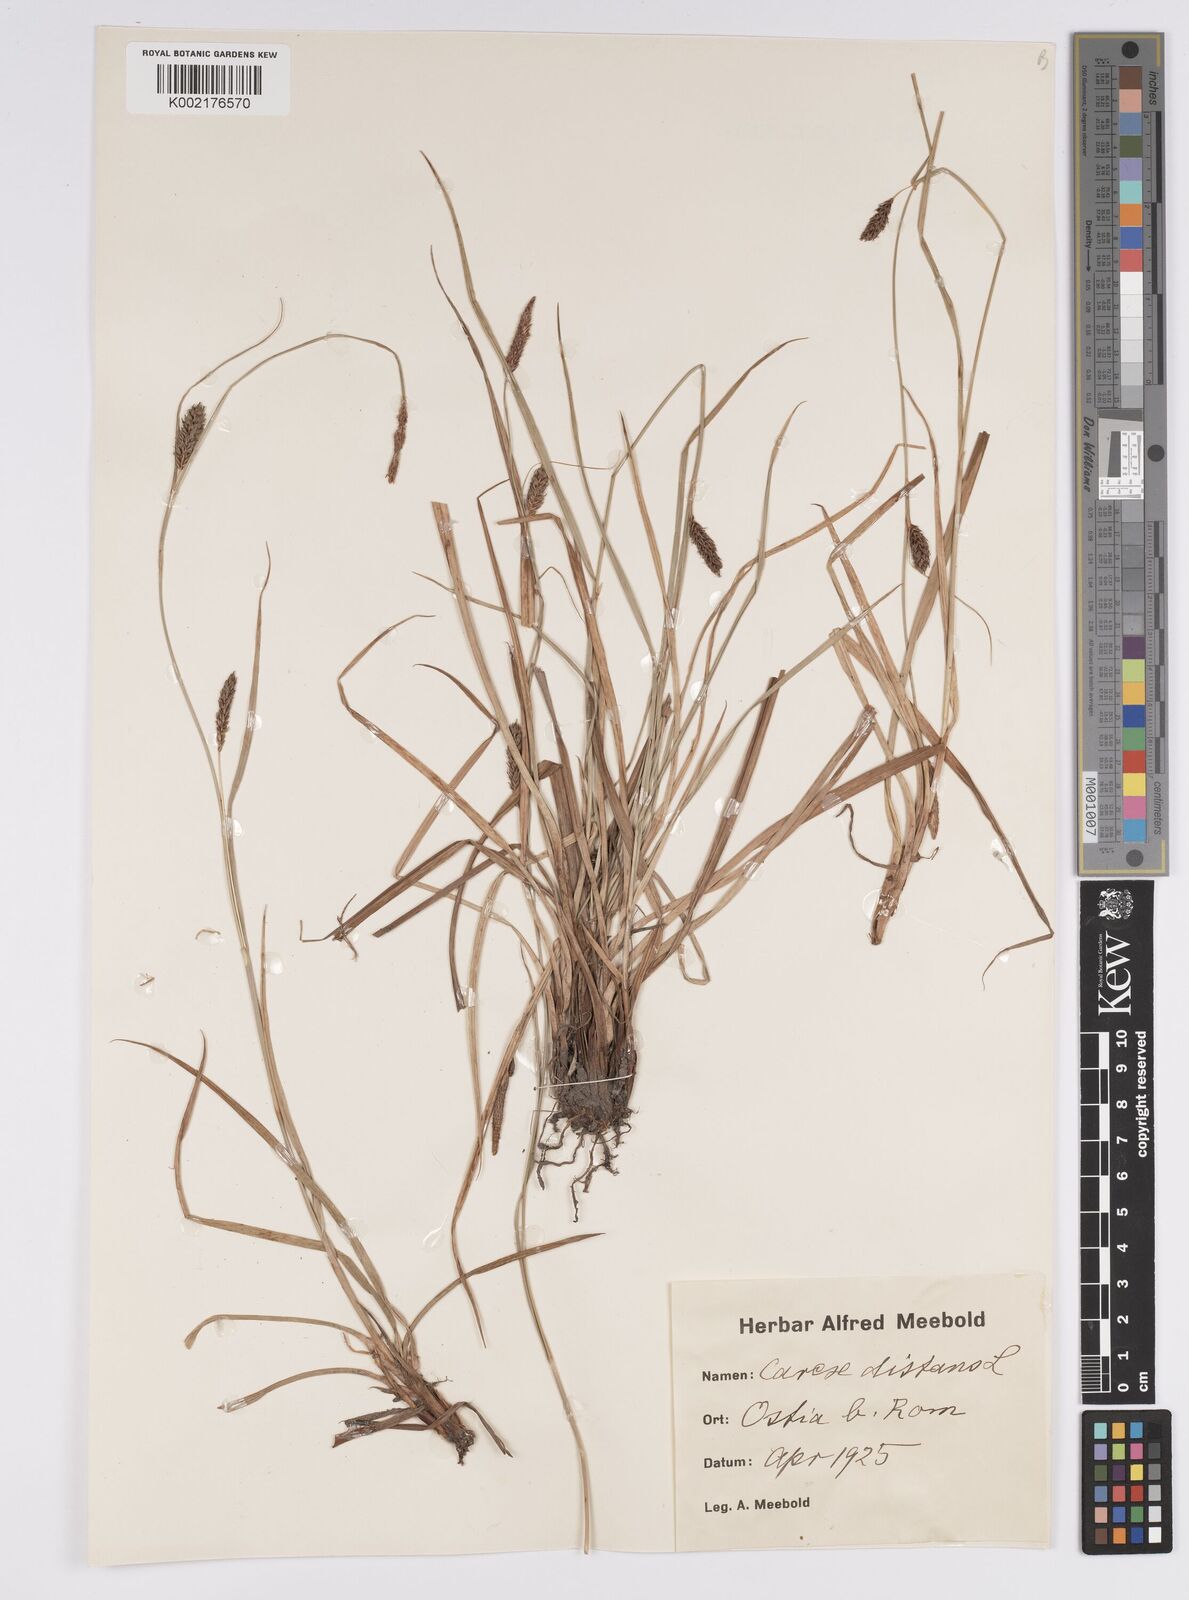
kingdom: Plantae
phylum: Tracheophyta
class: Liliopsida
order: Poales
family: Cyperaceae
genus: Carex
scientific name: Carex distans
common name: Distant sedge
